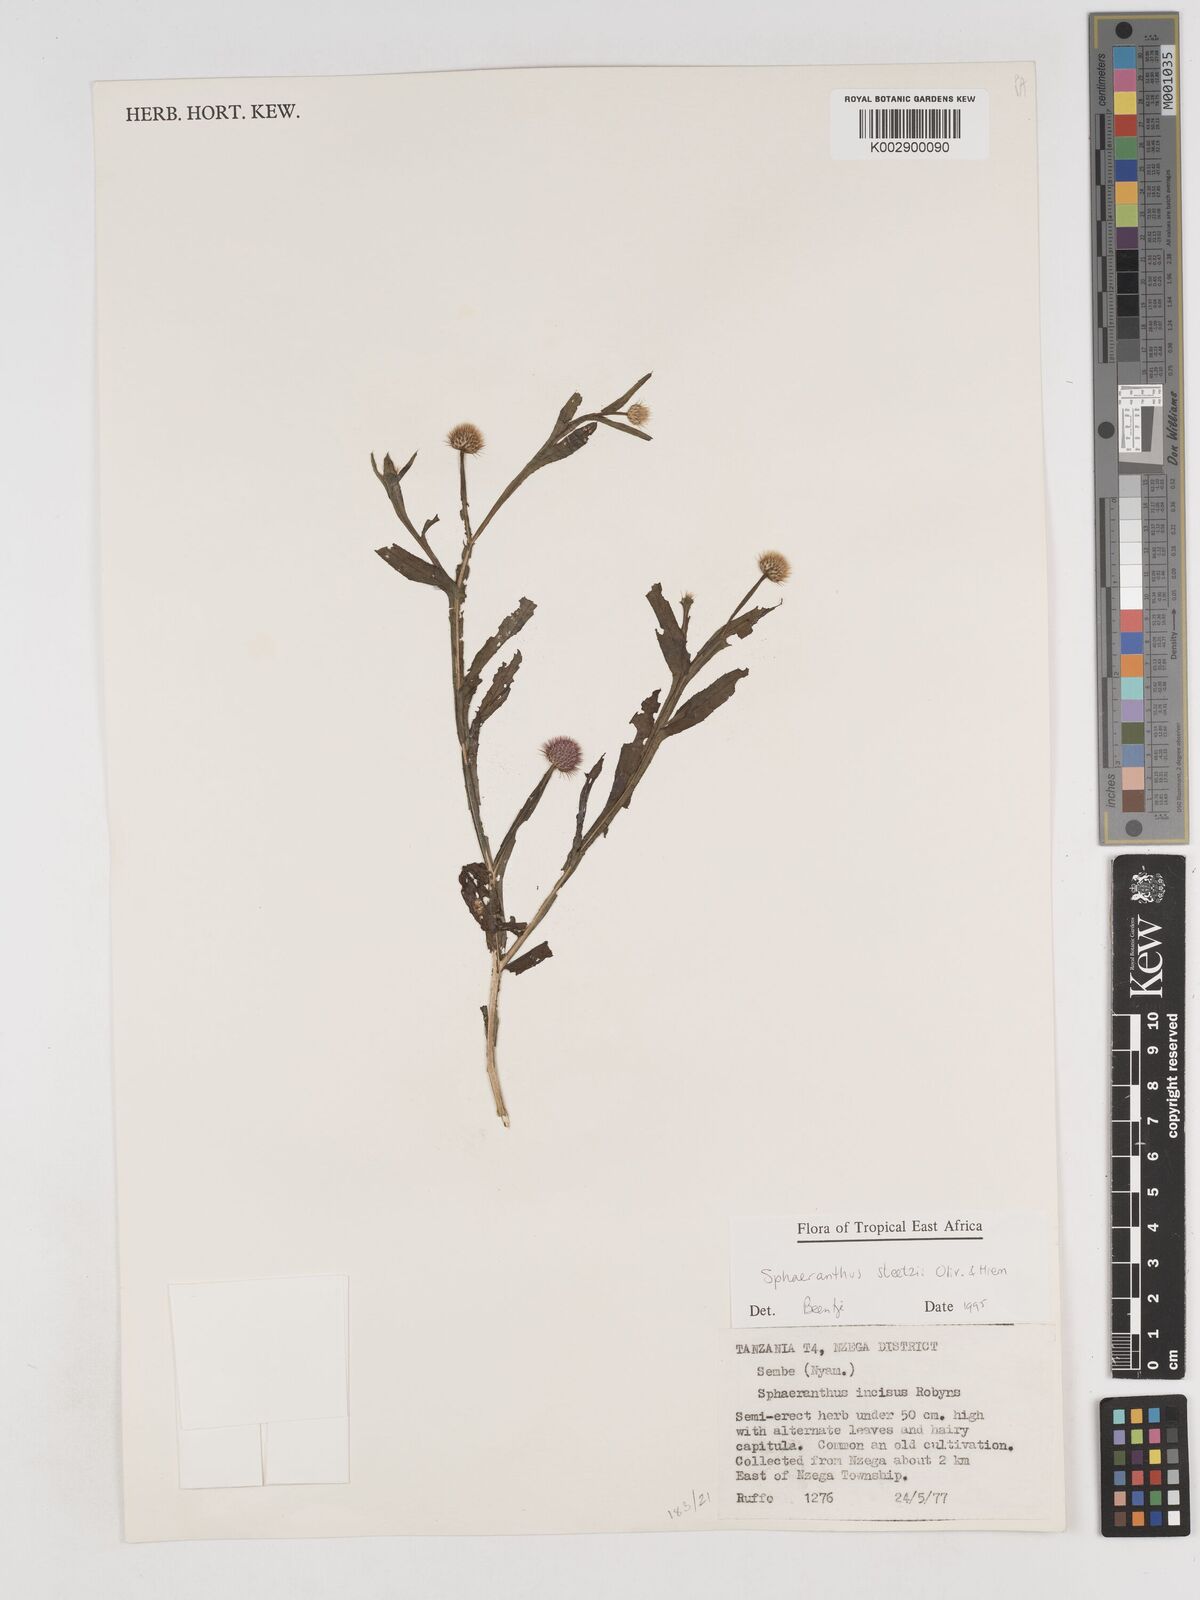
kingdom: Plantae
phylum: Tracheophyta
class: Magnoliopsida
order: Asterales
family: Asteraceae
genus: Sphaeranthus
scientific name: Sphaeranthus steetzii
